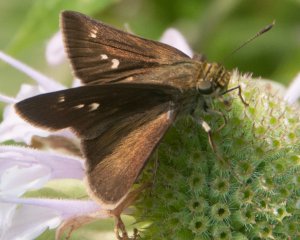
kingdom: Animalia
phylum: Arthropoda
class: Insecta
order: Lepidoptera
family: Hesperiidae
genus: Polites
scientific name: Polites egeremet
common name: Northern Broken-Dash
